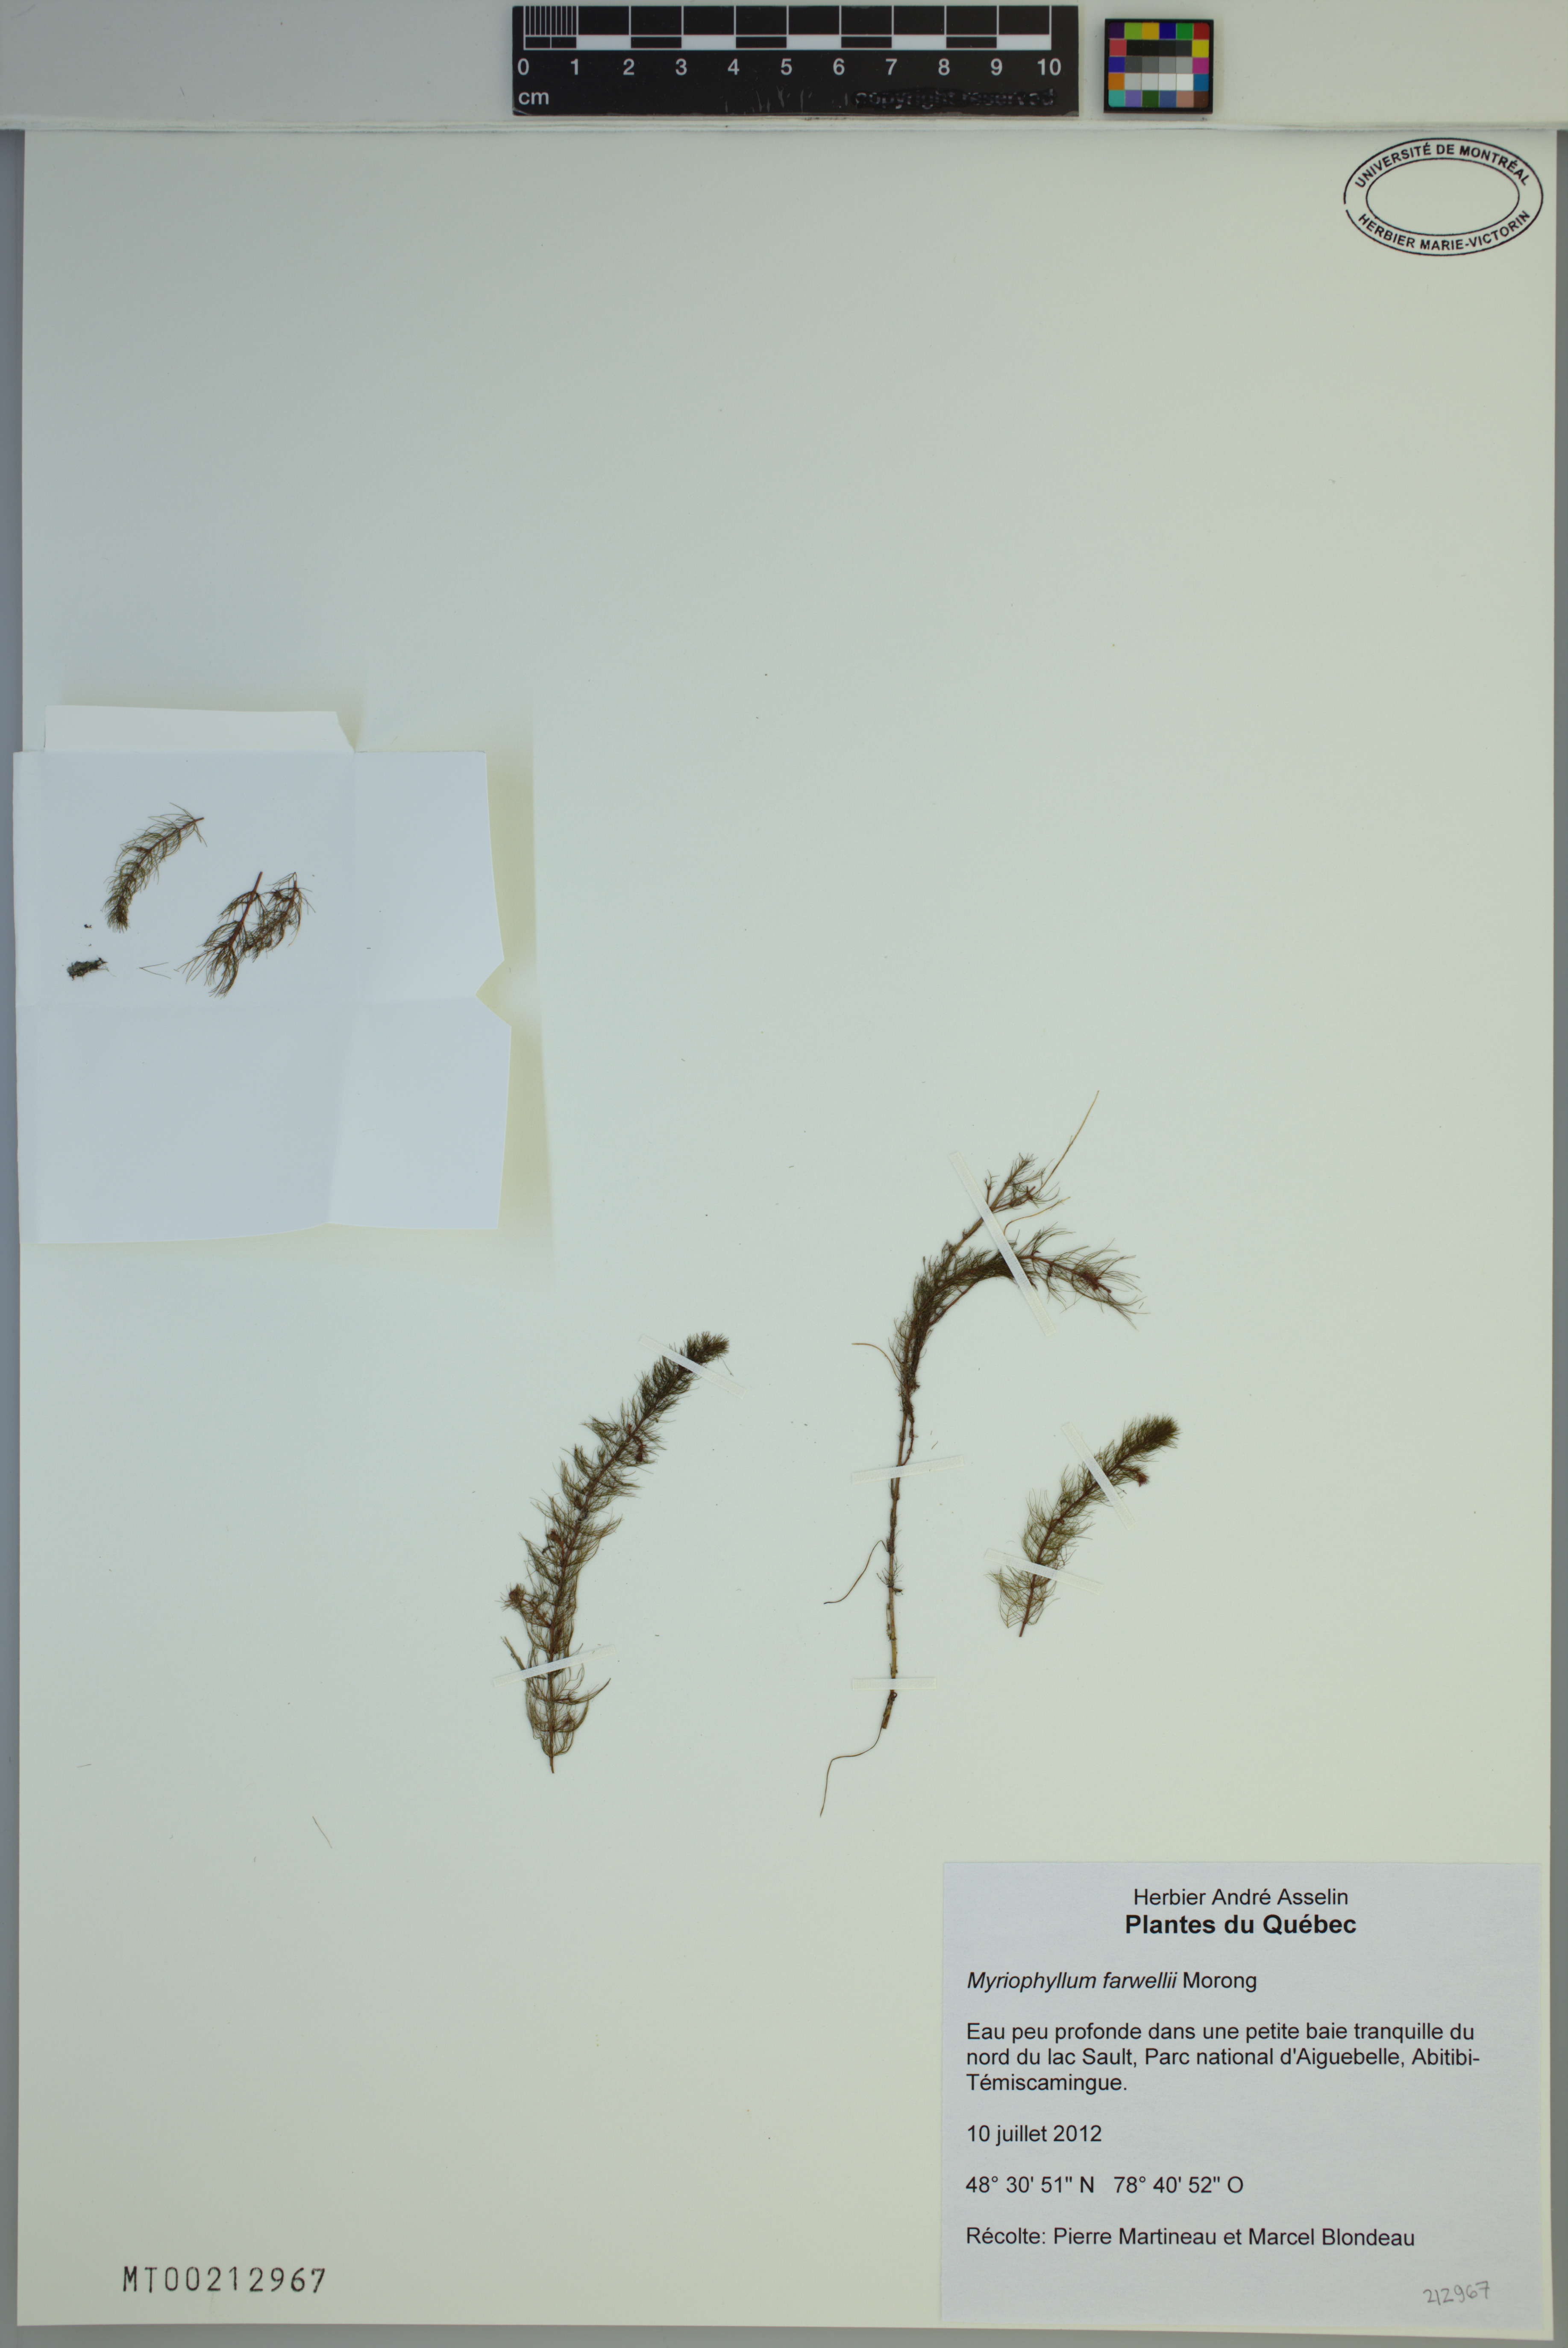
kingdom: Plantae
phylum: Tracheophyta
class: Magnoliopsida
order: Saxifragales
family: Haloragaceae
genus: Myriophyllum
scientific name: Myriophyllum farwellii
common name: Farwell's water-milfoil
